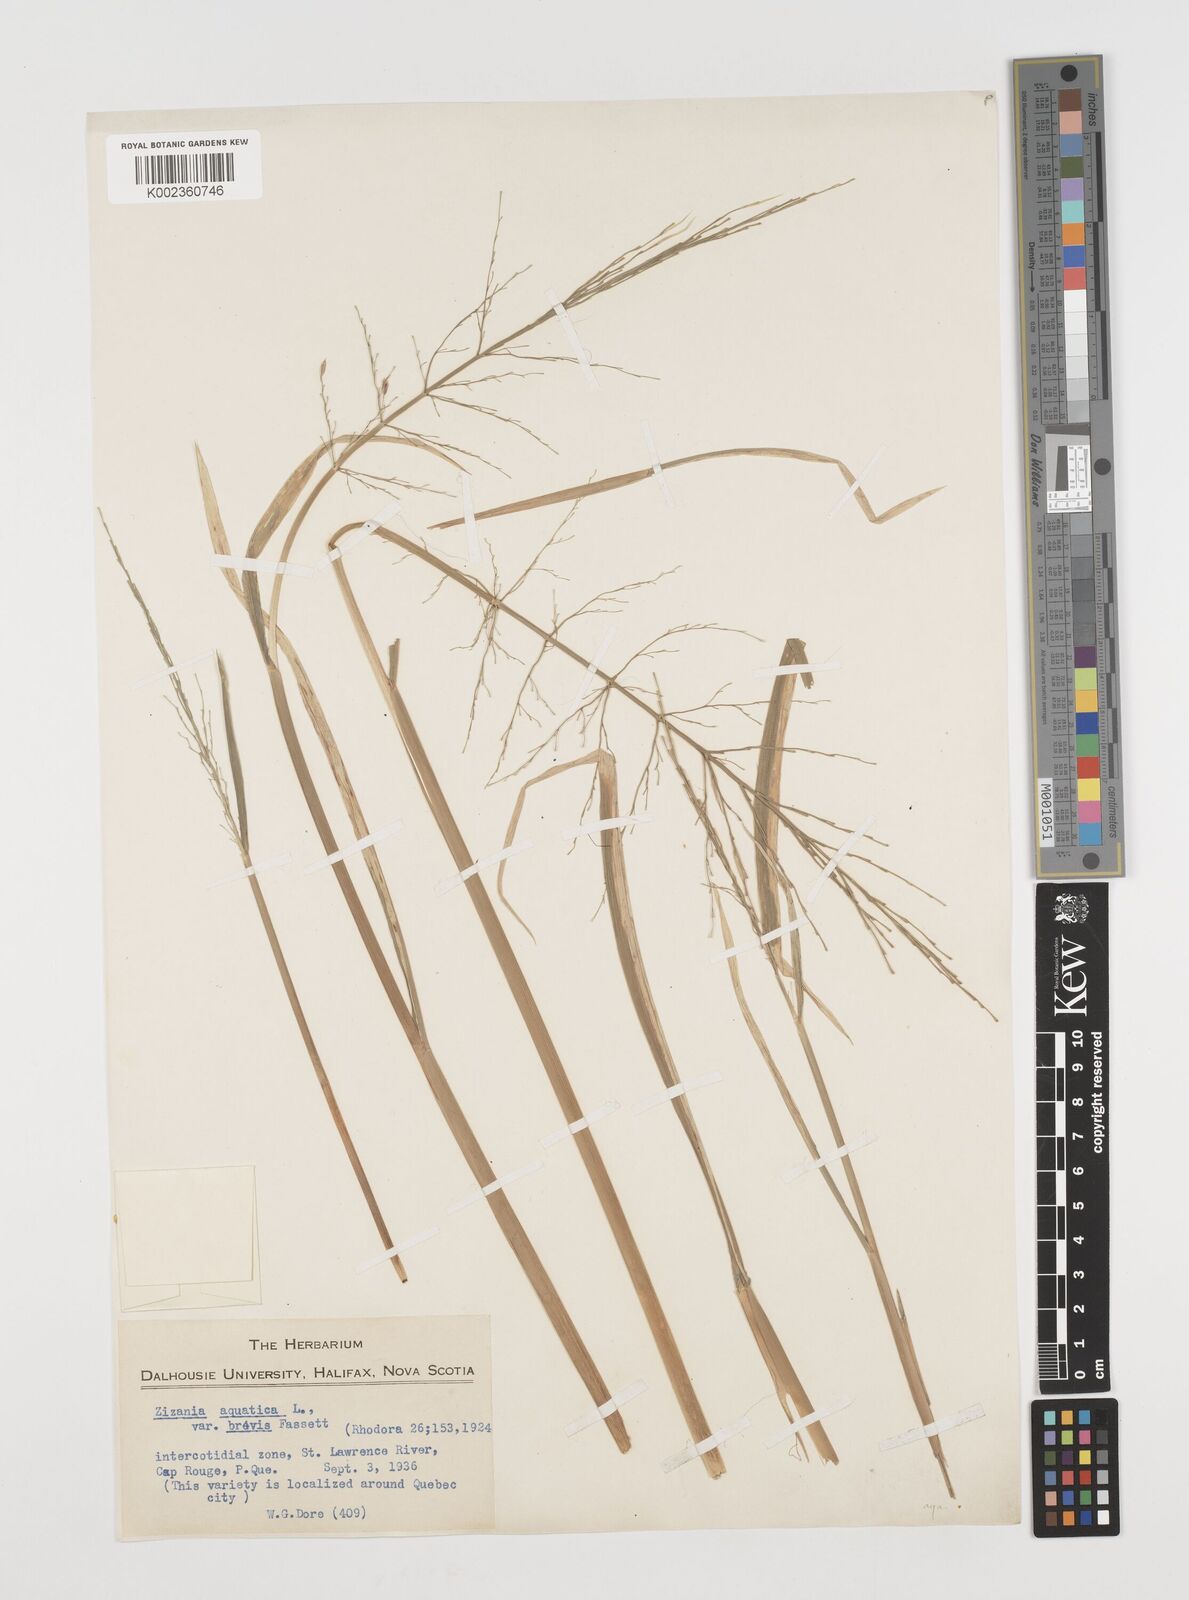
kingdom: Plantae
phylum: Tracheophyta
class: Liliopsida
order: Poales
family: Poaceae
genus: Zizania
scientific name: Zizania aquatica
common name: Annual wildrice
